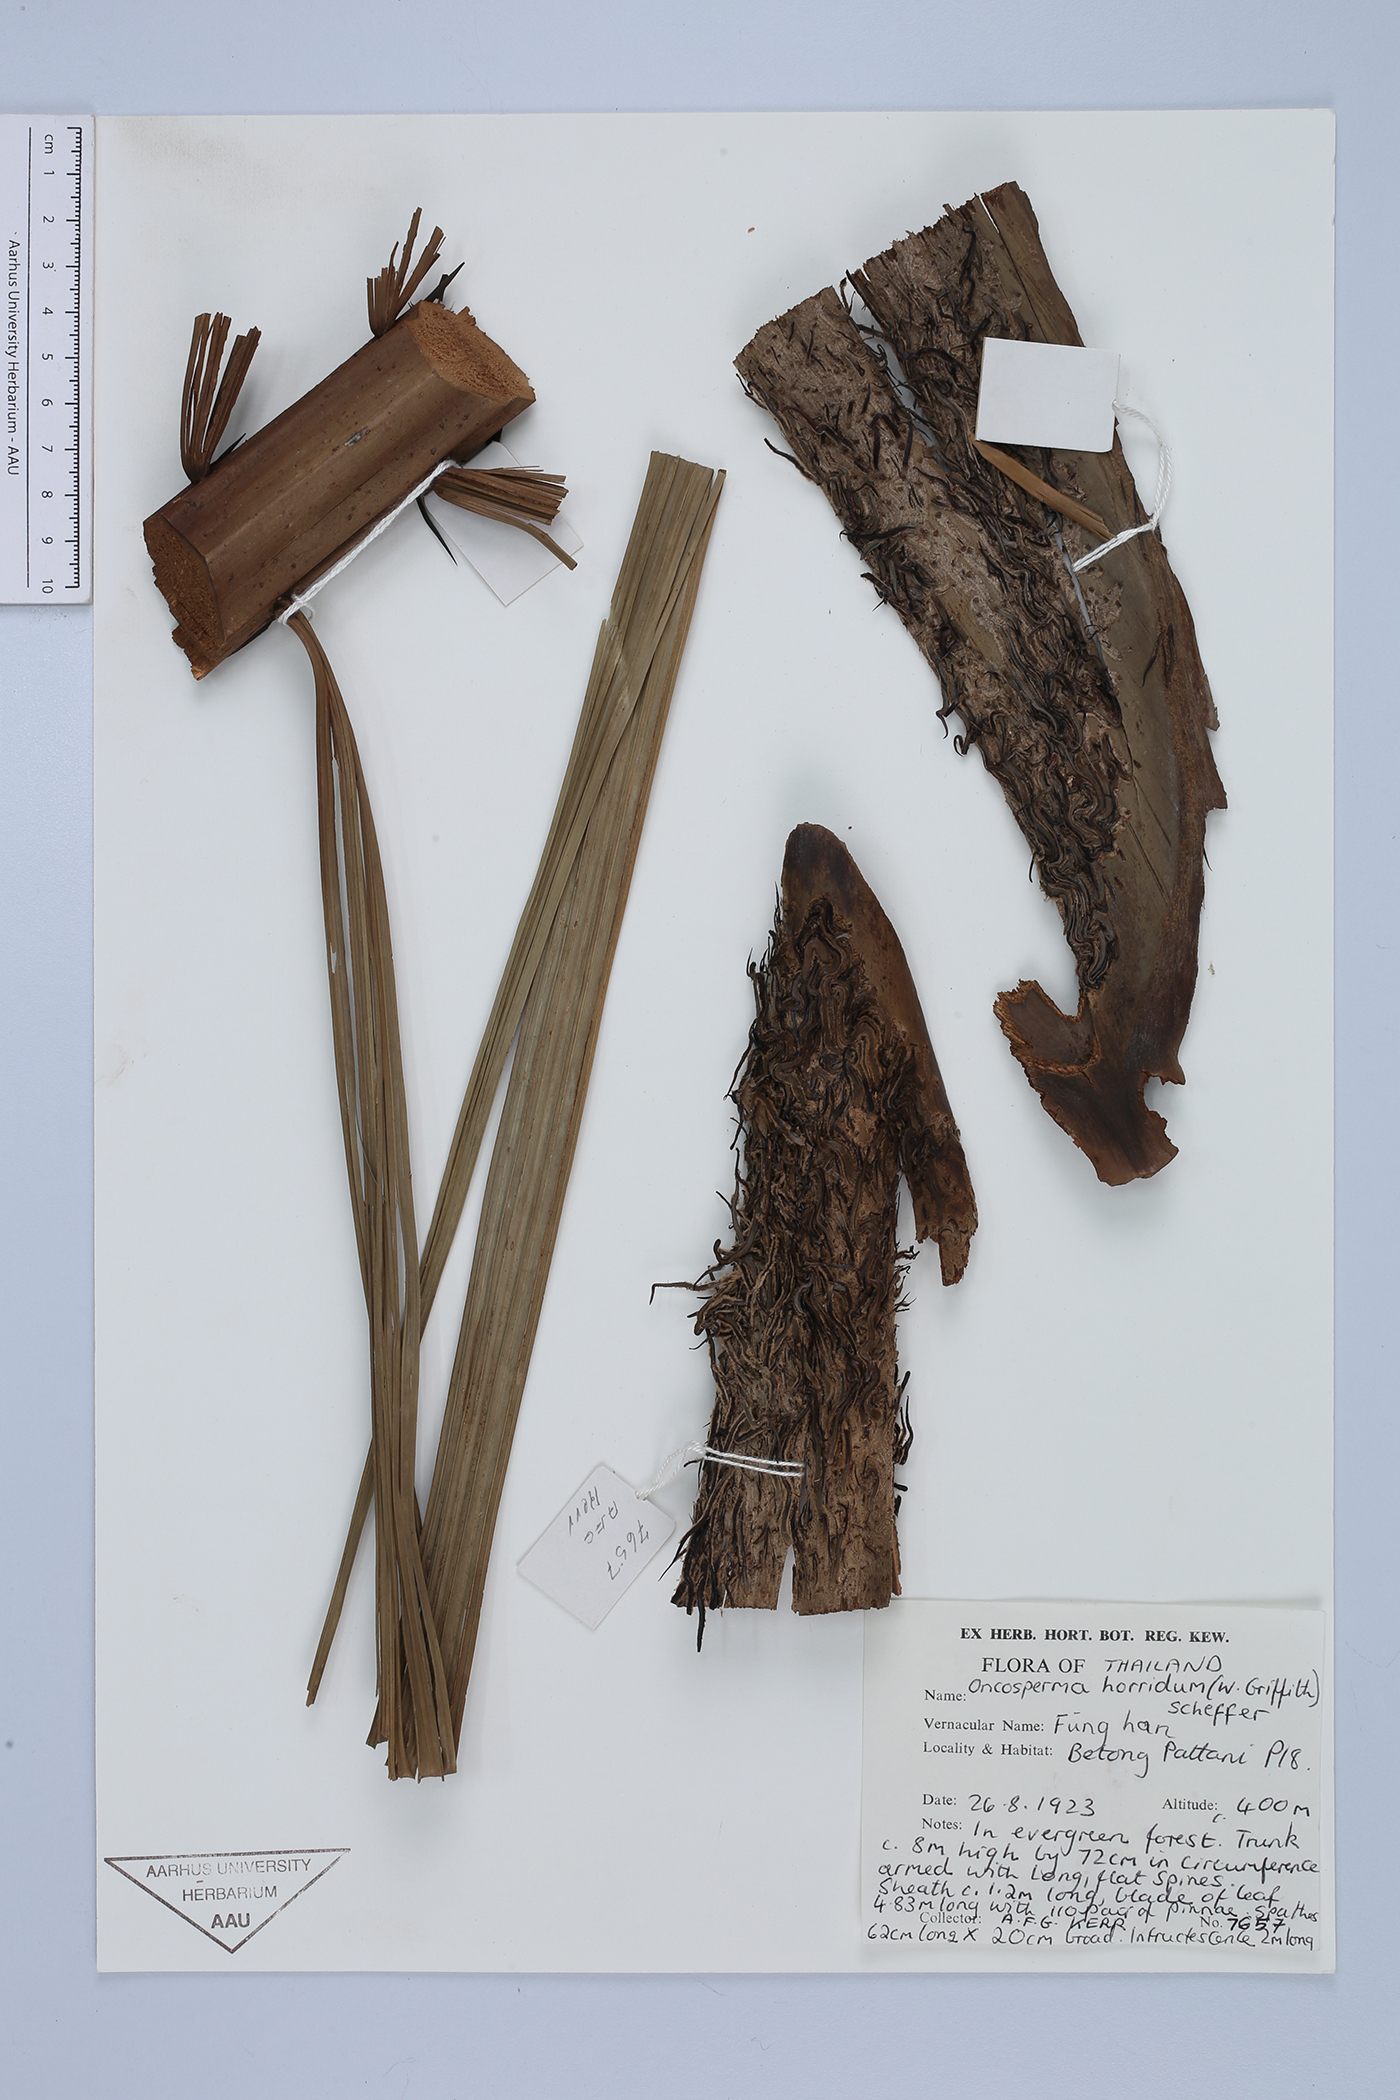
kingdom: Plantae
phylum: Tracheophyta
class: Liliopsida
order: Arecales
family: Arecaceae
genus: Oncosperma
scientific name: Oncosperma horridum
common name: Thorny palm
